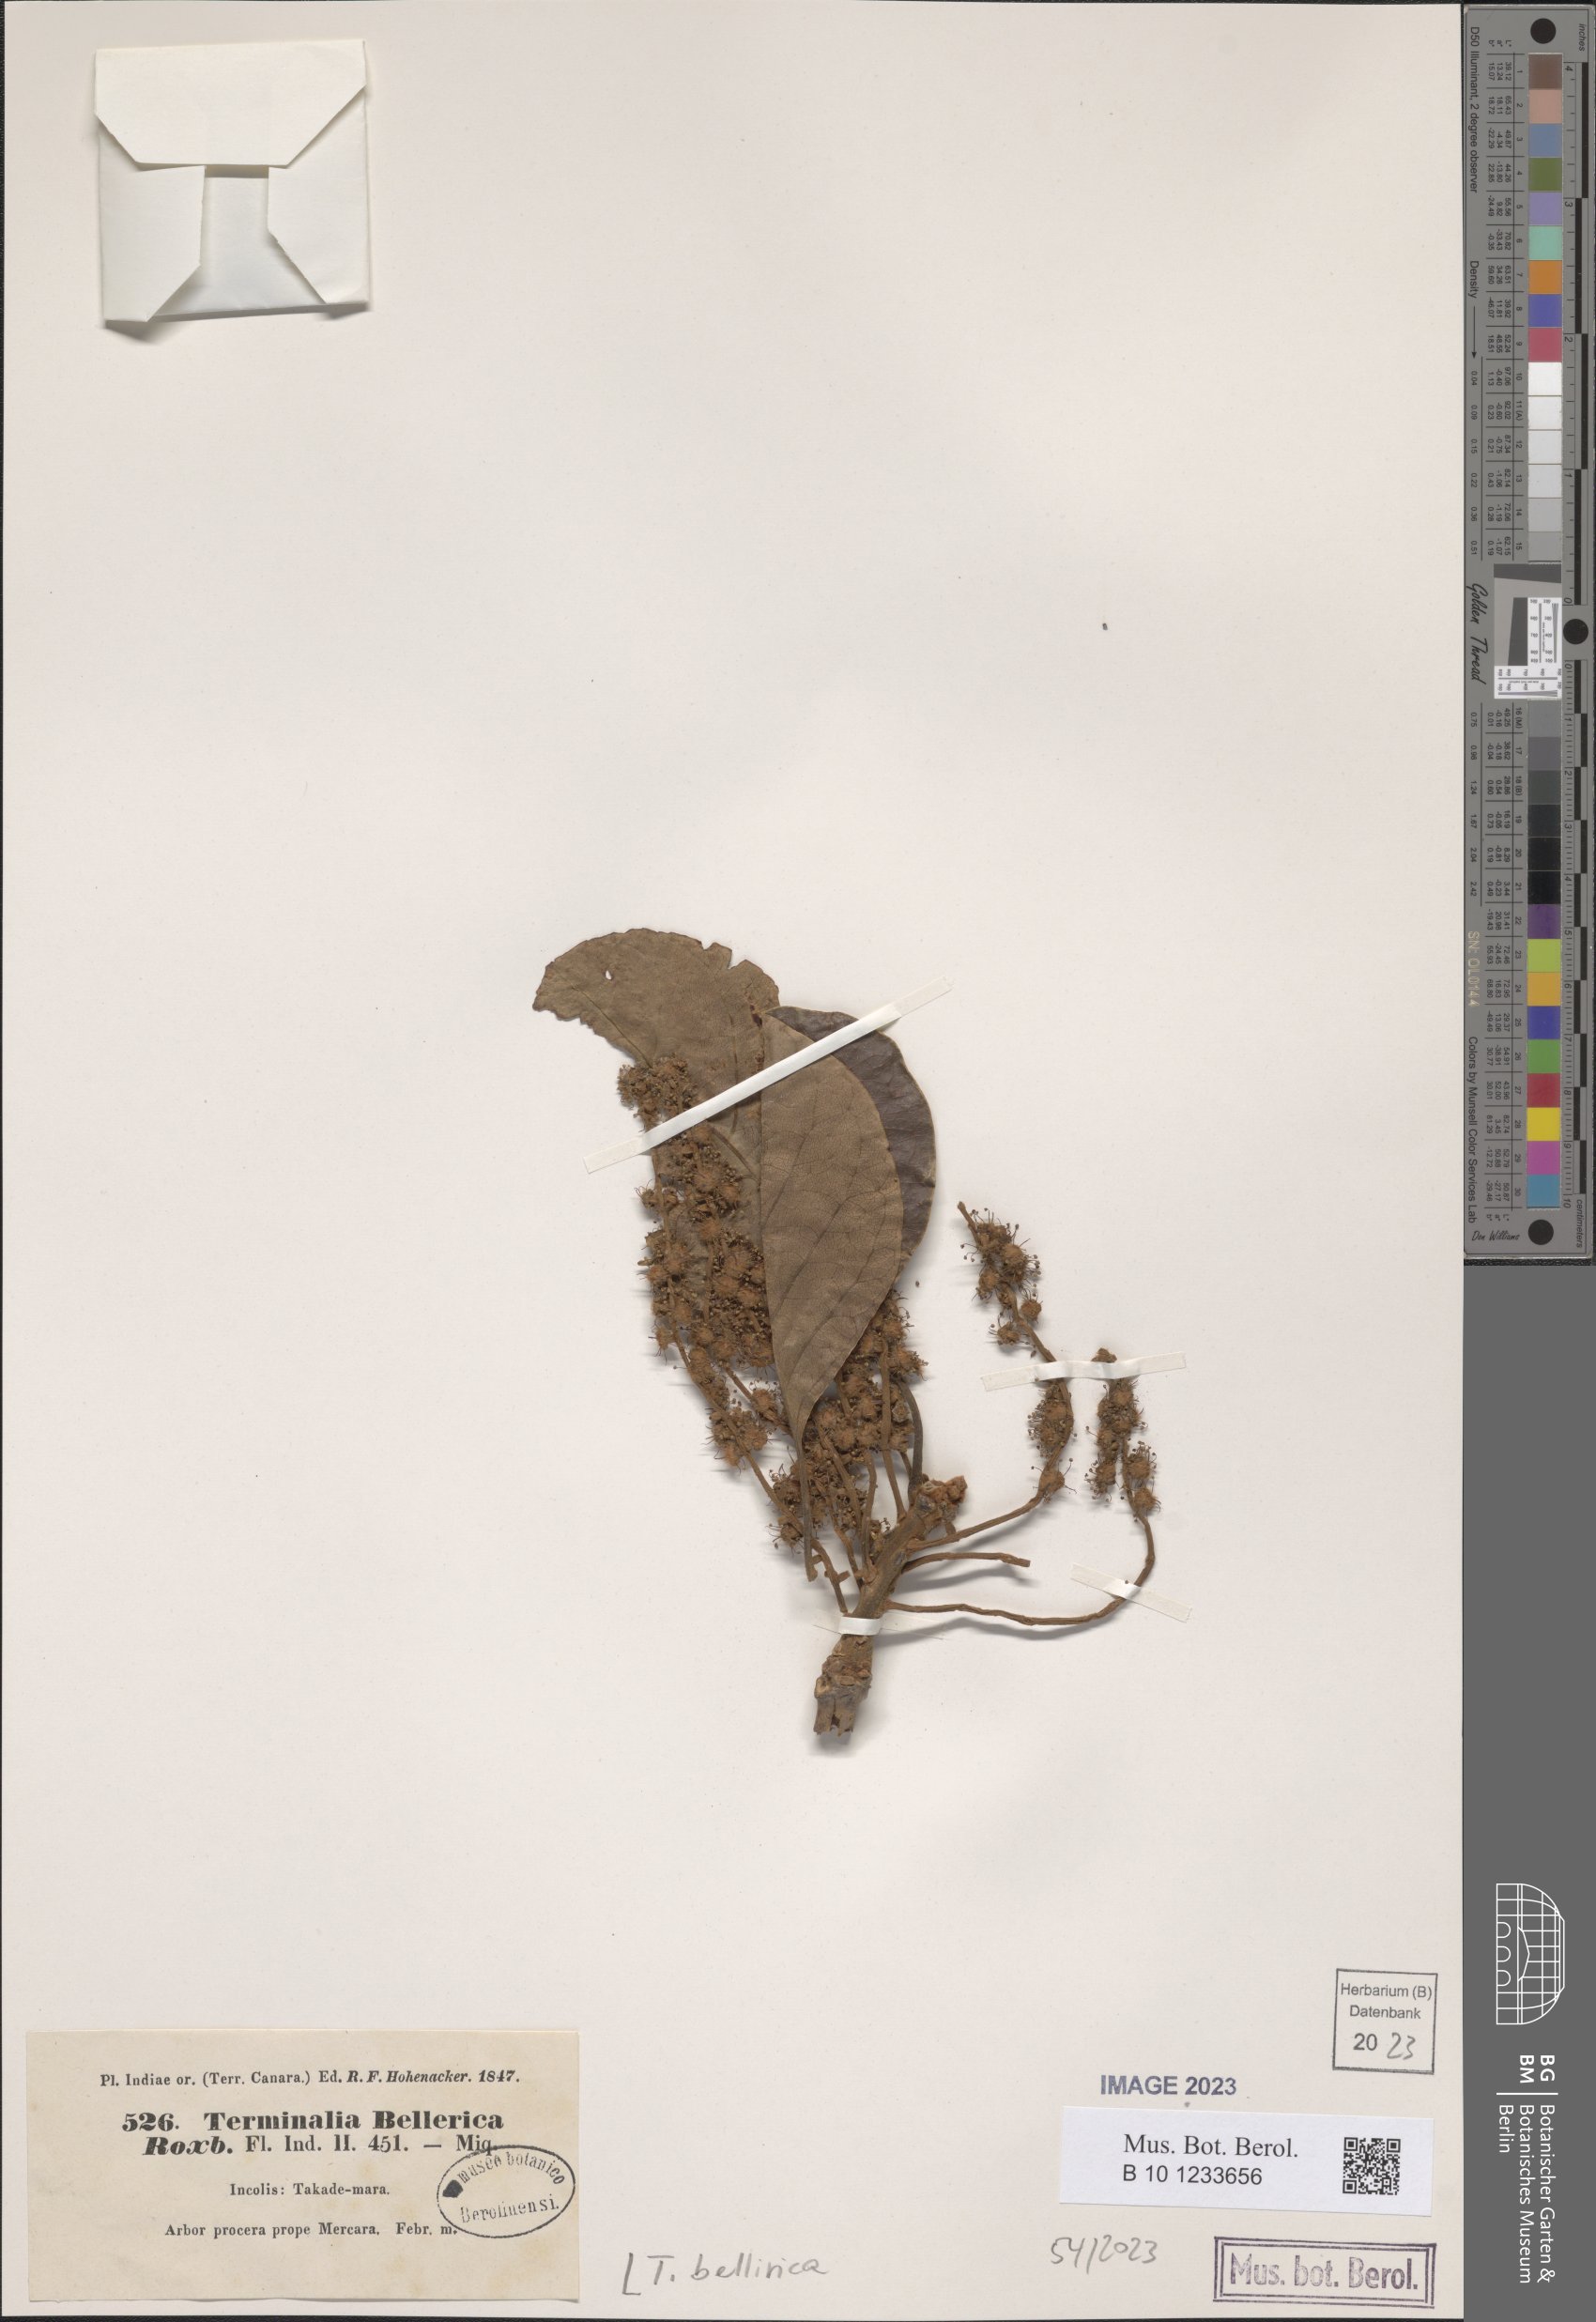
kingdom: Plantae
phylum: Tracheophyta
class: Magnoliopsida
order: Myrtales
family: Combretaceae
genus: Terminalia
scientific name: Terminalia bellirica
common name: Beleric myrobalan
